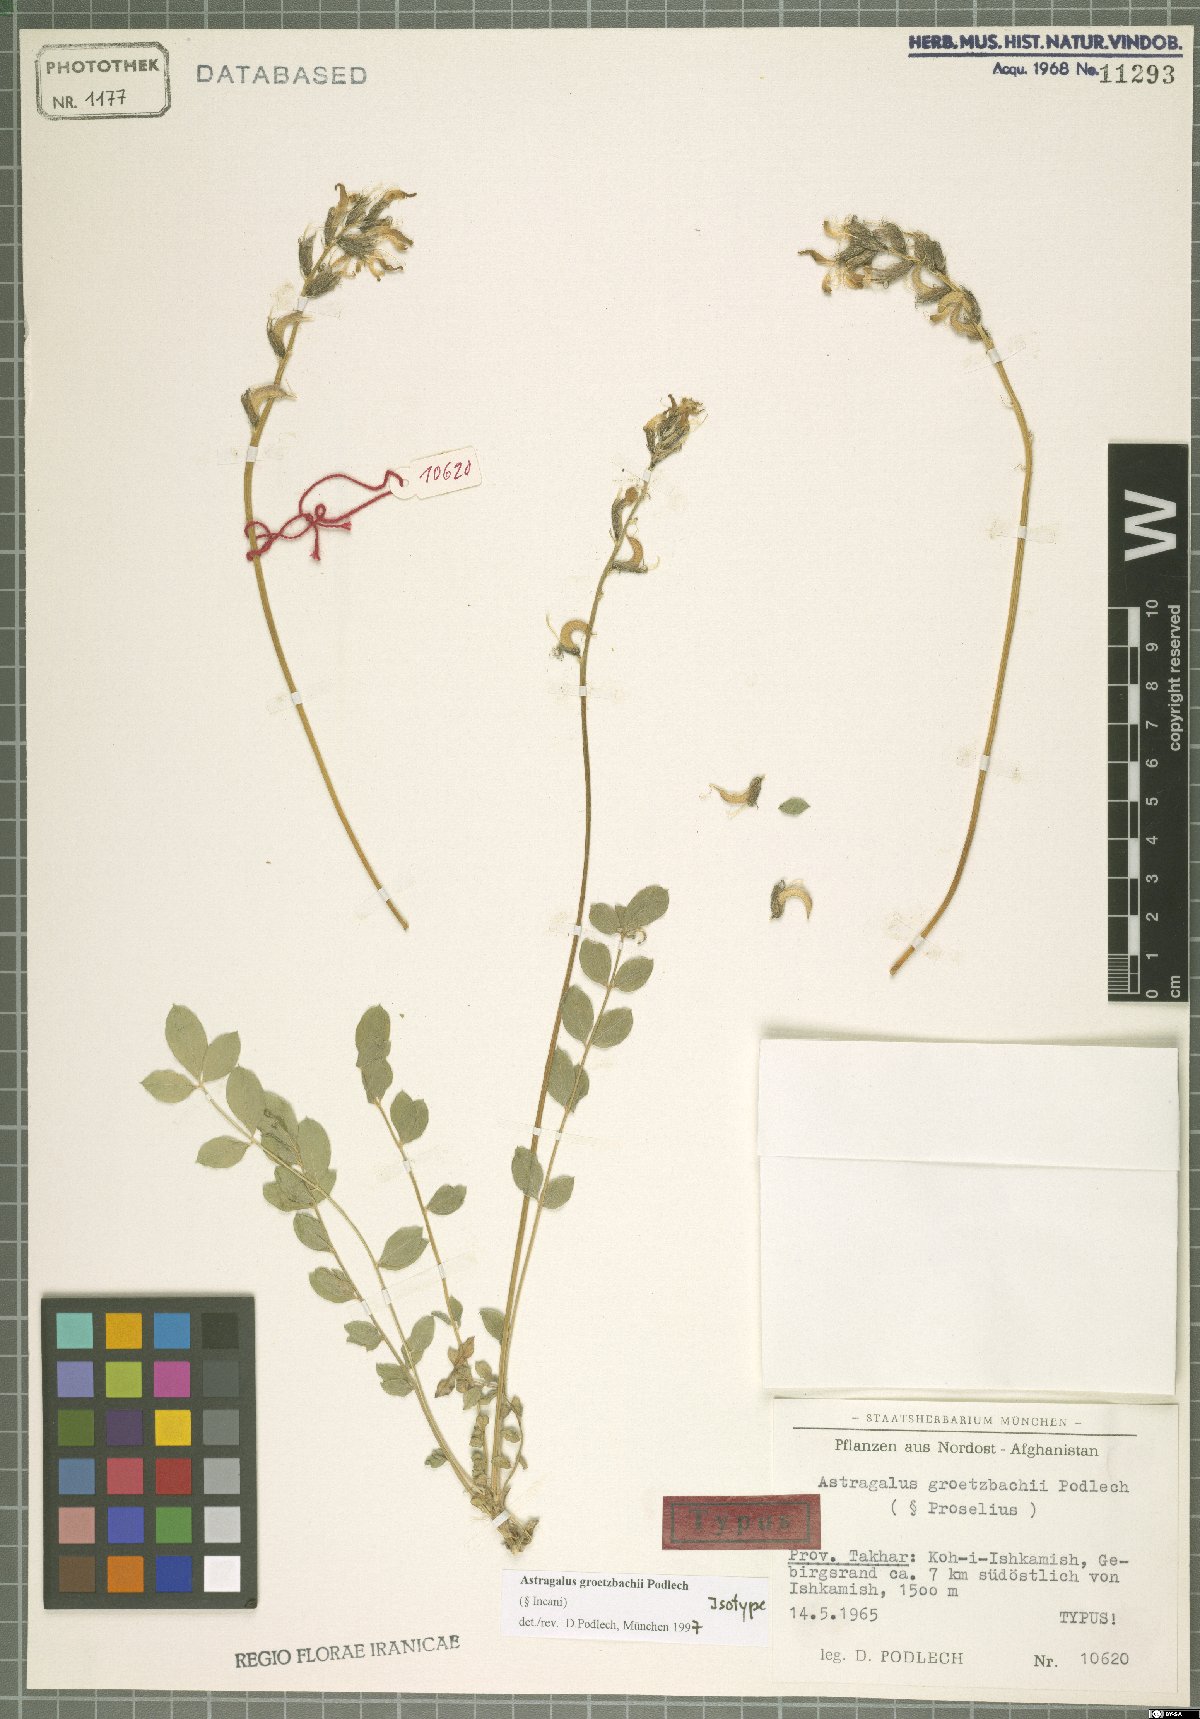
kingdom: Plantae
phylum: Tracheophyta
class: Magnoliopsida
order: Fabales
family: Fabaceae
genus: Astragalus
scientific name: Astragalus groetzbachii
